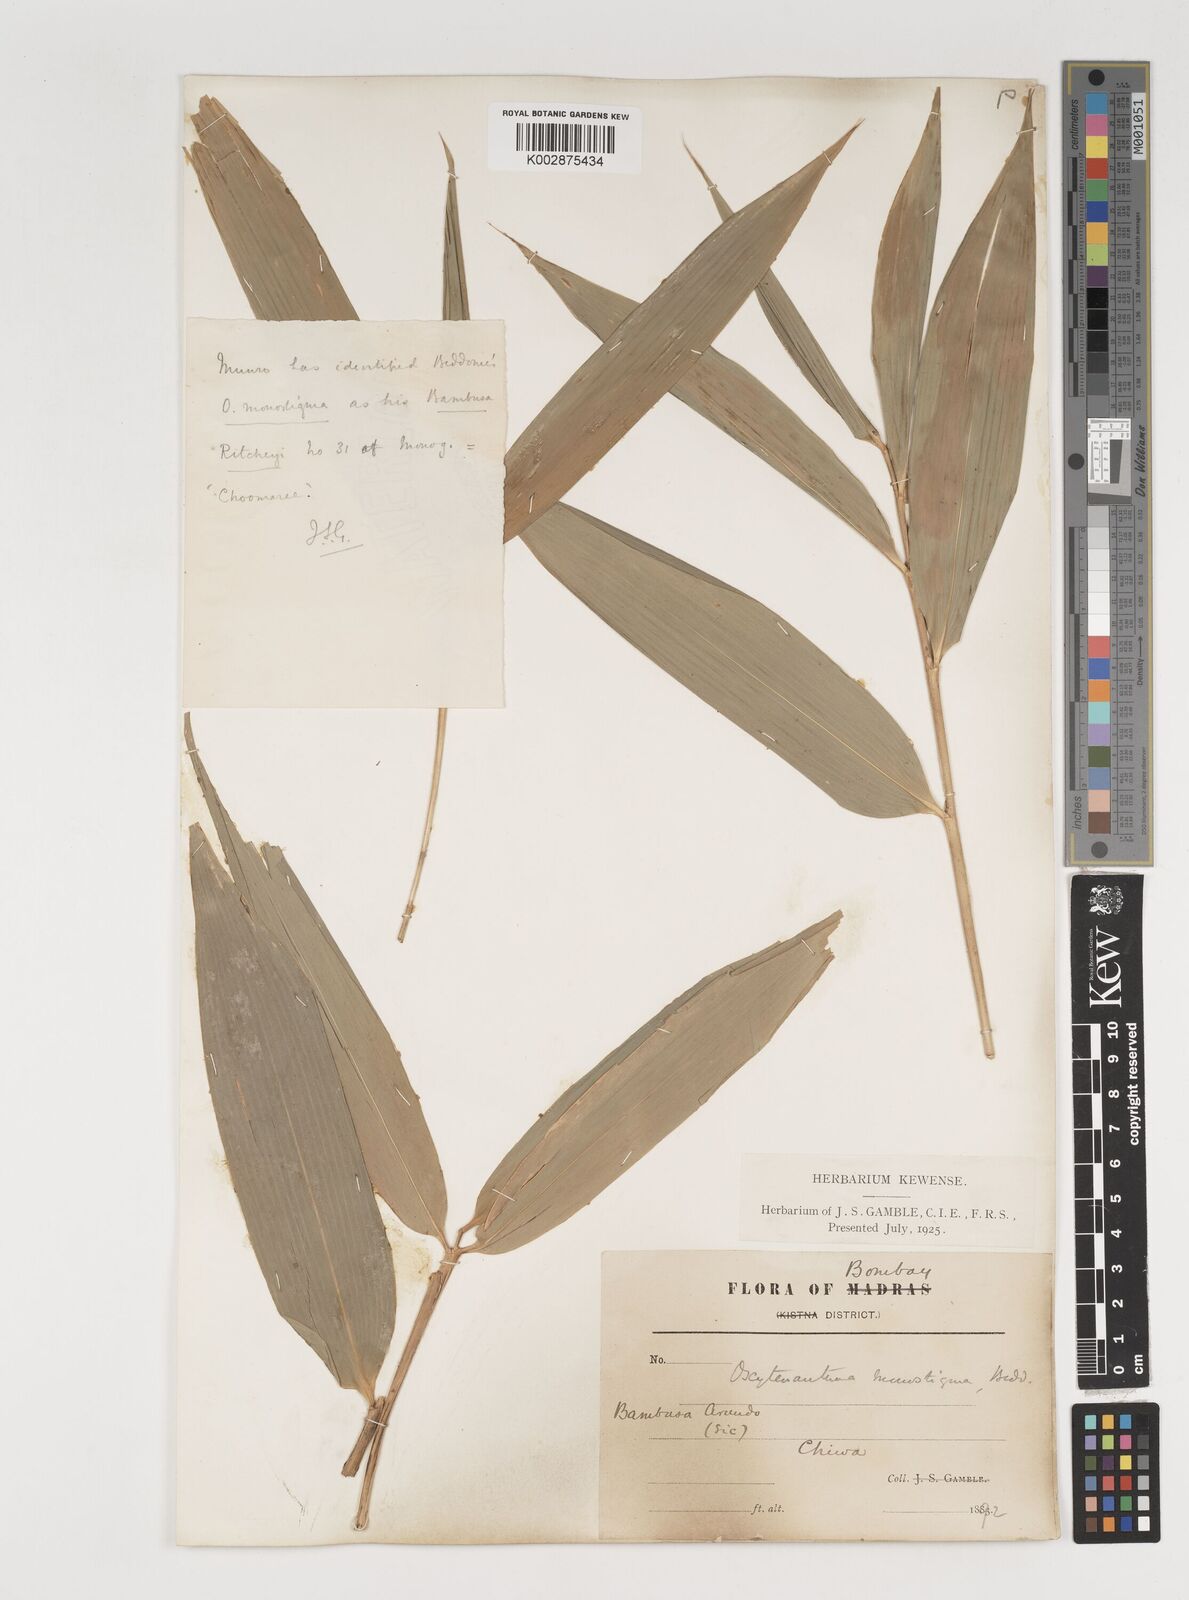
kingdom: Plantae
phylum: Tracheophyta
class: Liliopsida
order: Poales
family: Poaceae
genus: Dendrocalamus
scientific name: Dendrocalamus
